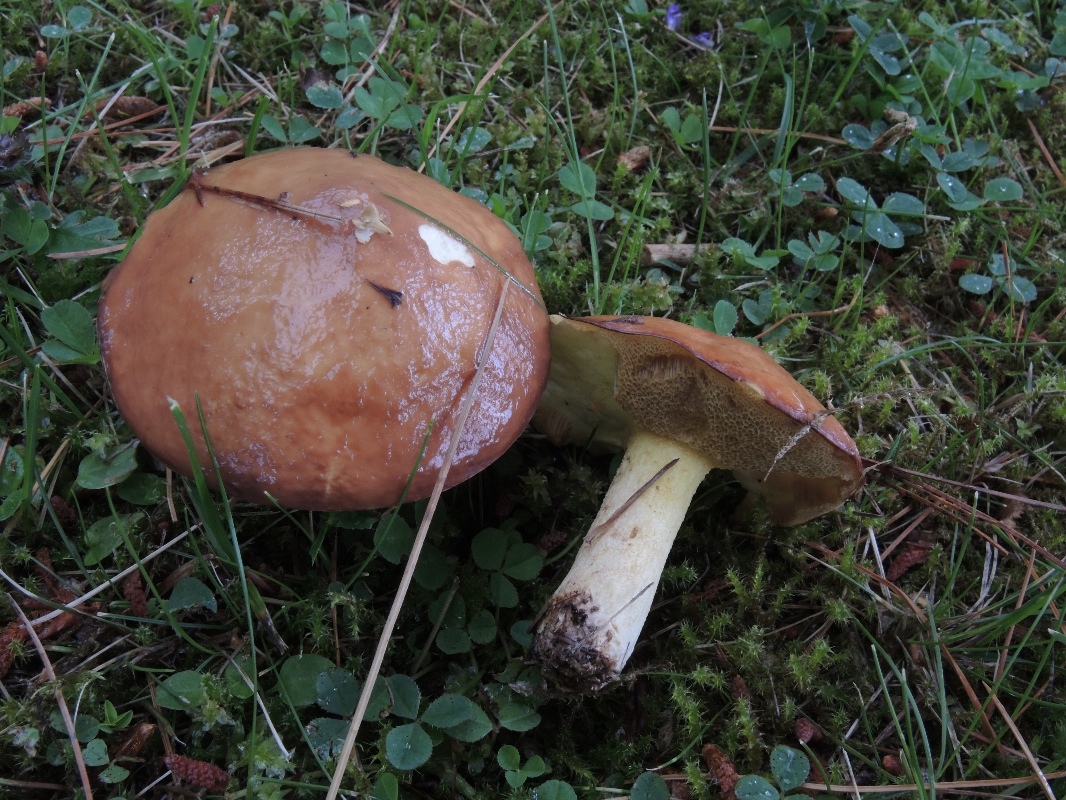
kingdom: Fungi
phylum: Basidiomycota
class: Agaricomycetes
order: Boletales
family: Suillaceae
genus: Suillus
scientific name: Suillus granulatus
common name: kornet slimrørhat
